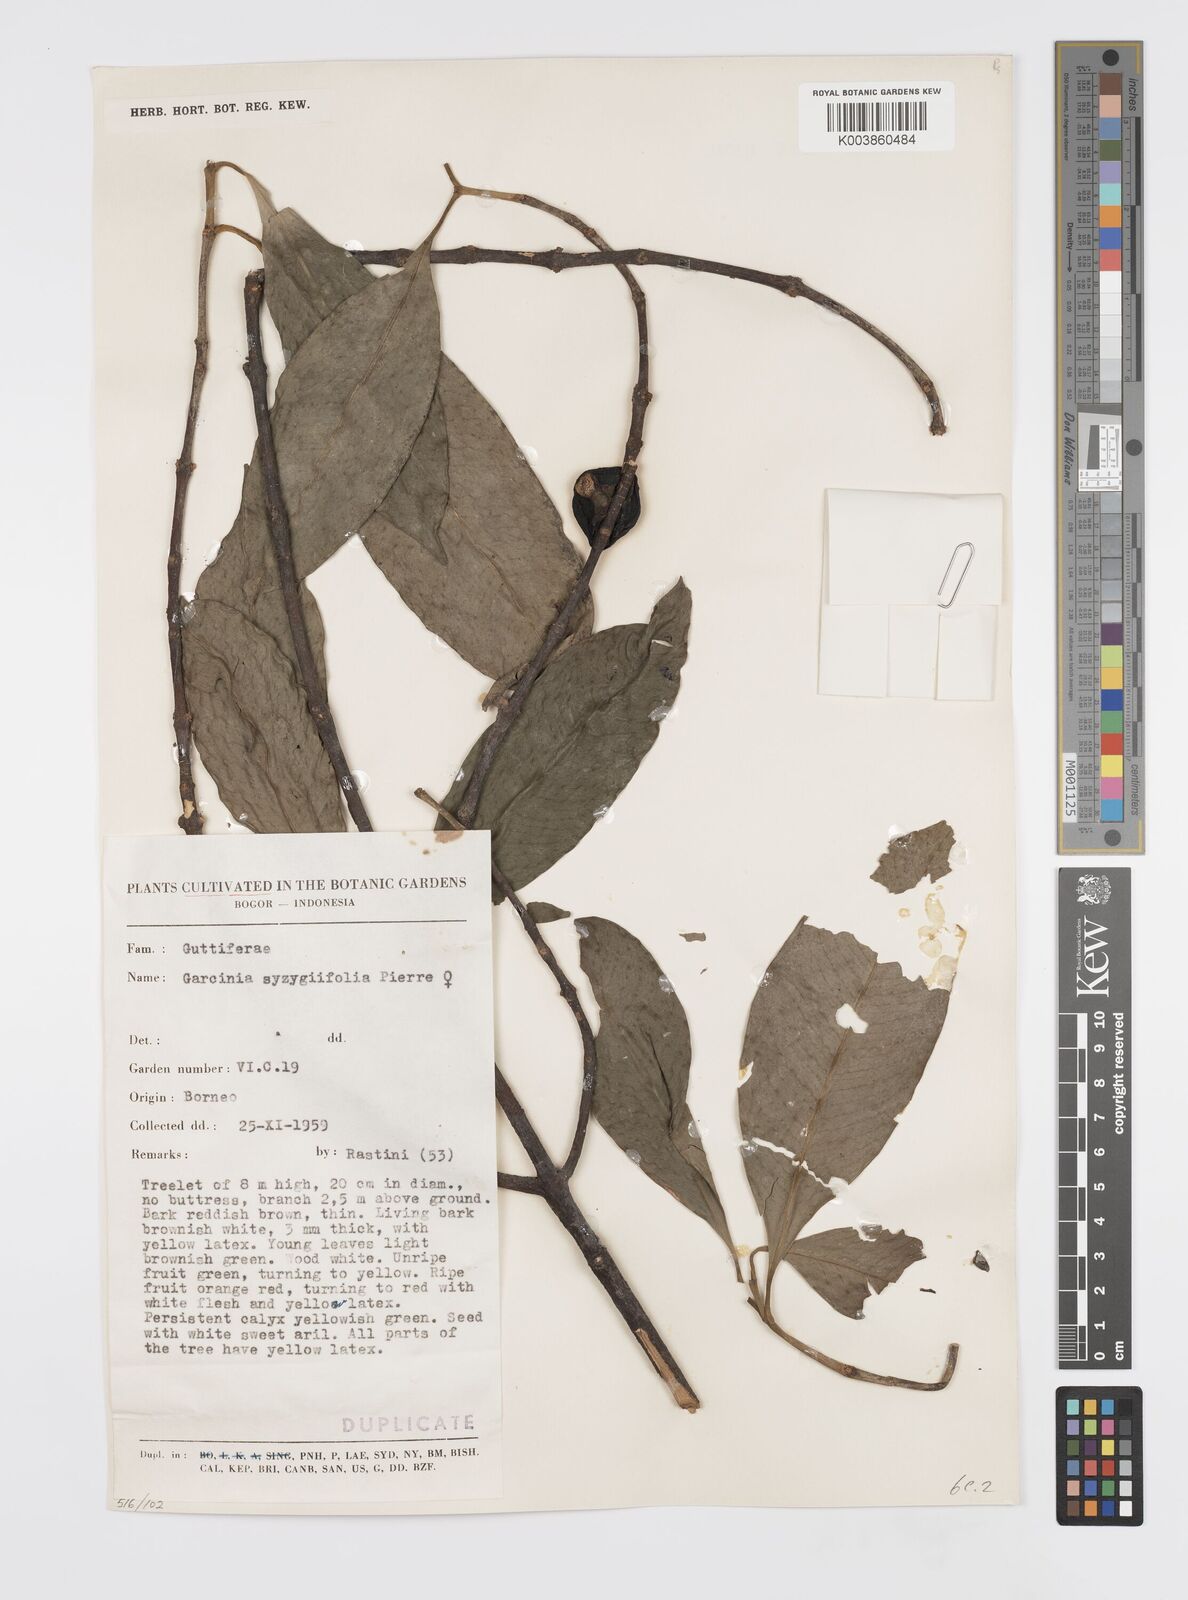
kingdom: Plantae
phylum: Tracheophyta
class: Magnoliopsida
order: Malpighiales
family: Clusiaceae
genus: Garcinia
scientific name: Garcinia sizygiifolia
